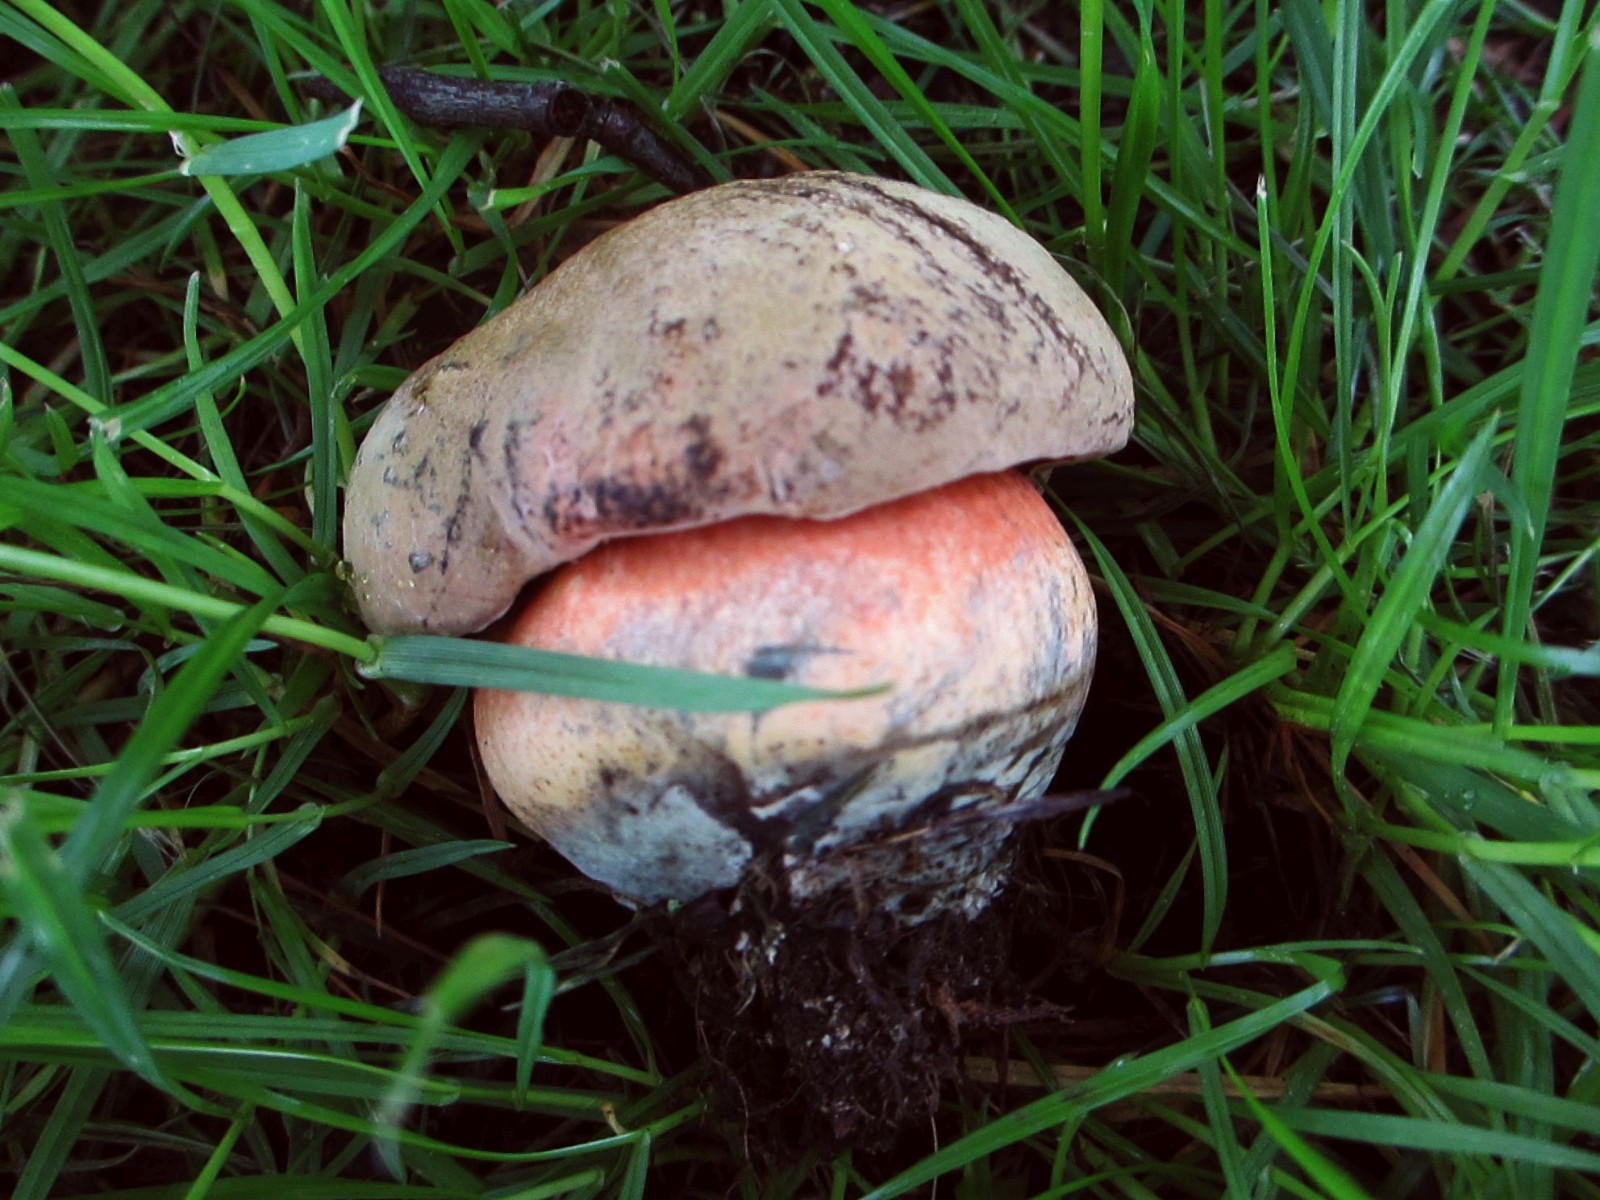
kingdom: Fungi
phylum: Basidiomycota
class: Agaricomycetes
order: Boletales
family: Boletaceae
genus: Neoboletus
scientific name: Neoboletus erythropus
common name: punktstokket indigorørhat
